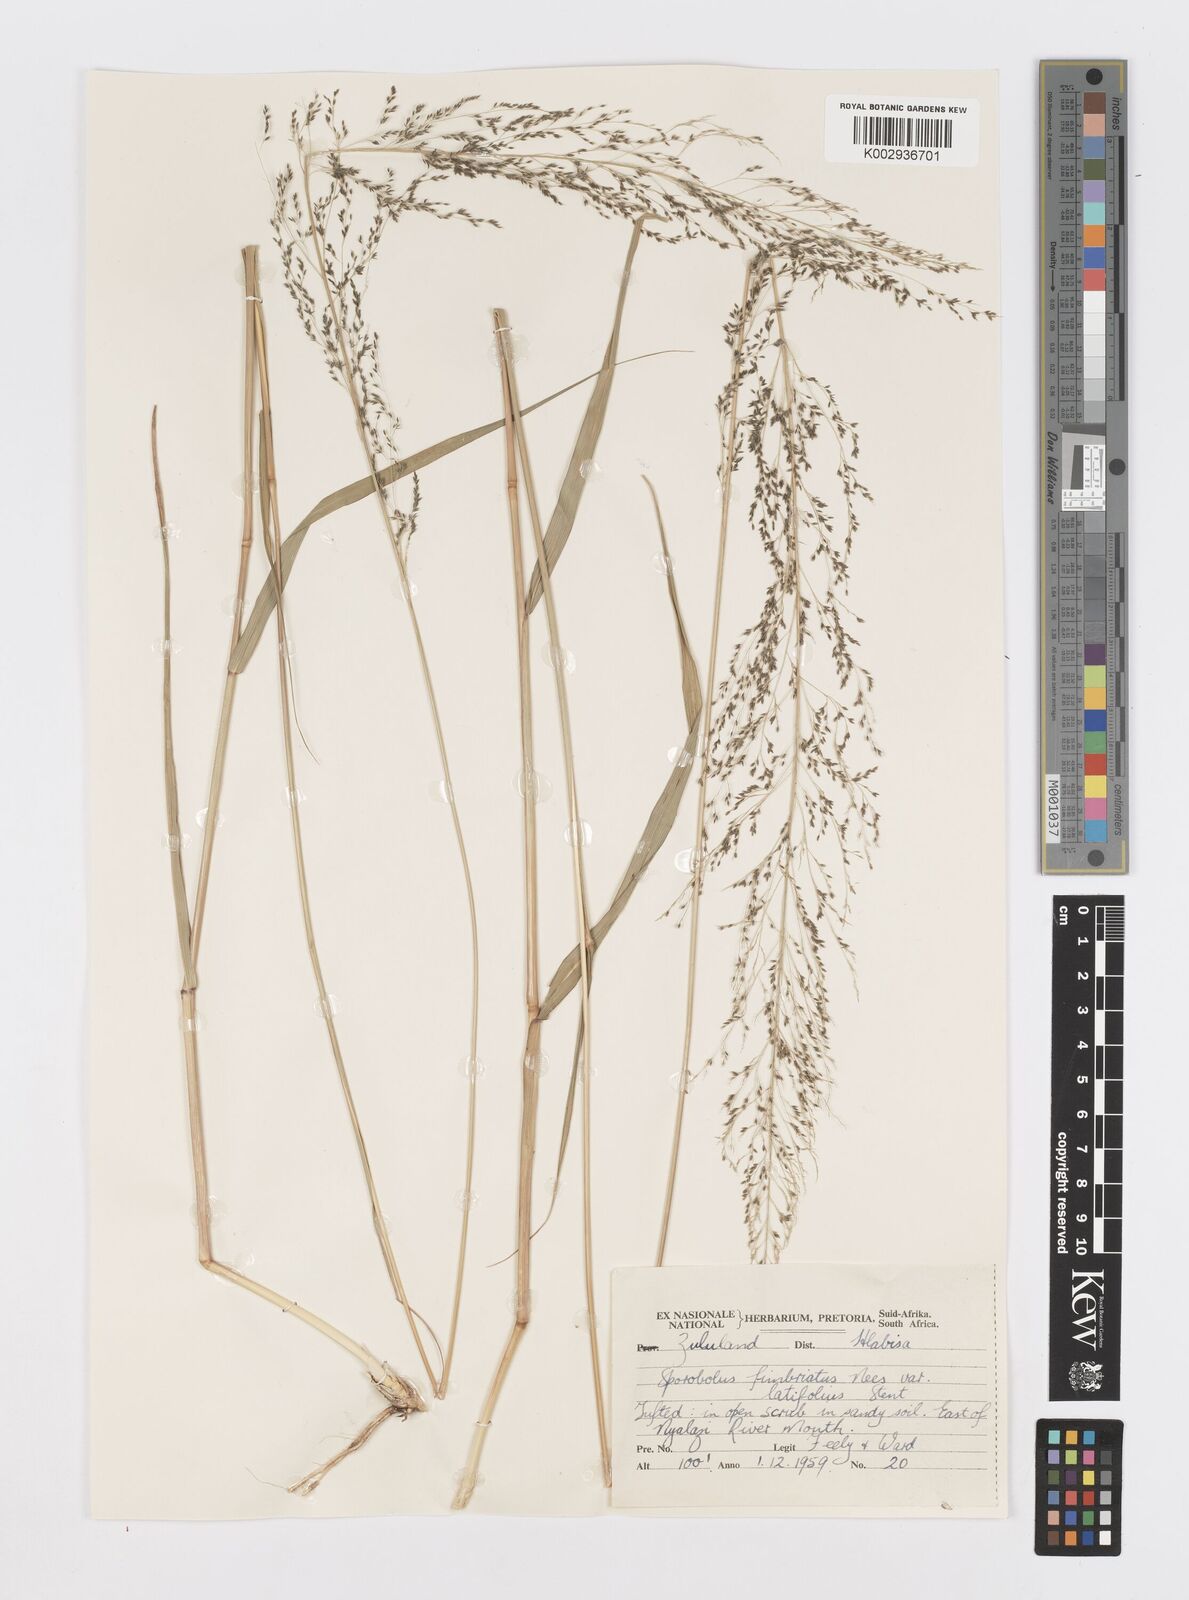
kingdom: Plantae
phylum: Tracheophyta
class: Liliopsida
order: Poales
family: Poaceae
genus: Sporobolus
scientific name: Sporobolus fimbriatus
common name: Fringed dropseed
